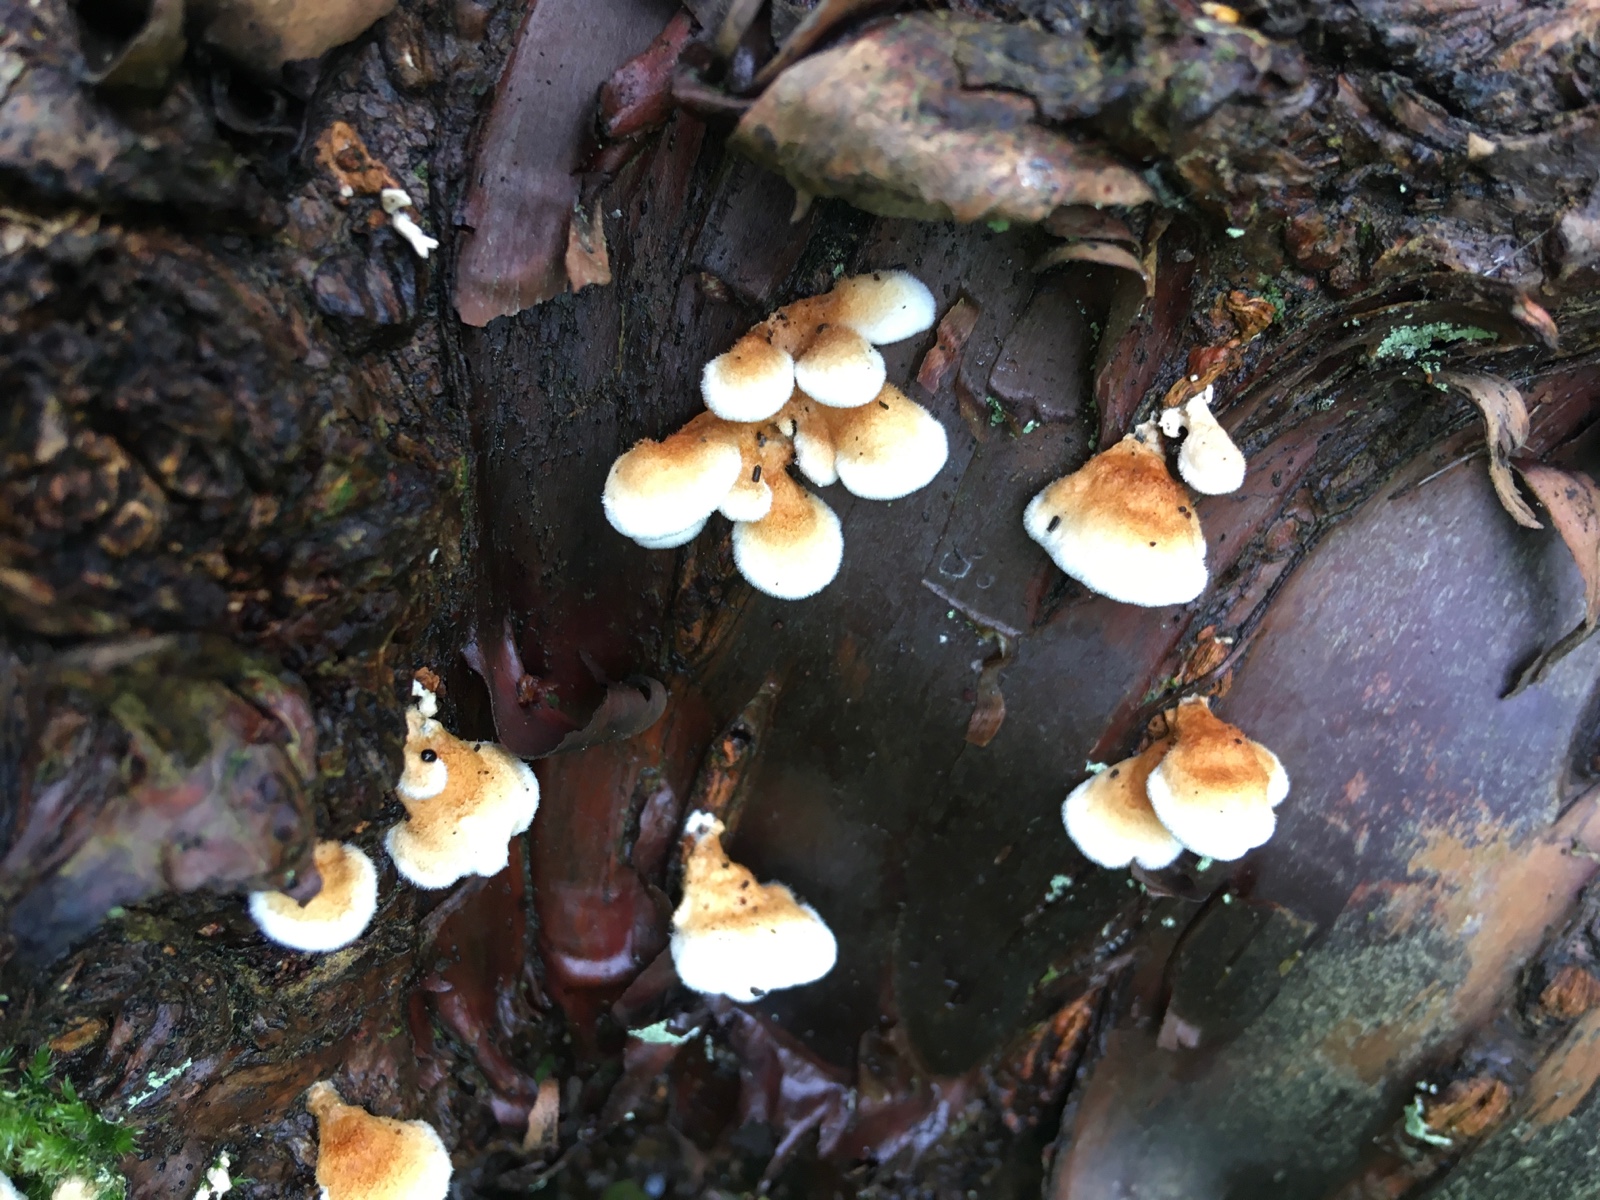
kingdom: Fungi
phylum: Basidiomycota
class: Agaricomycetes
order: Amylocorticiales
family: Amylocorticiaceae
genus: Plicaturopsis
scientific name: Plicaturopsis crispa
